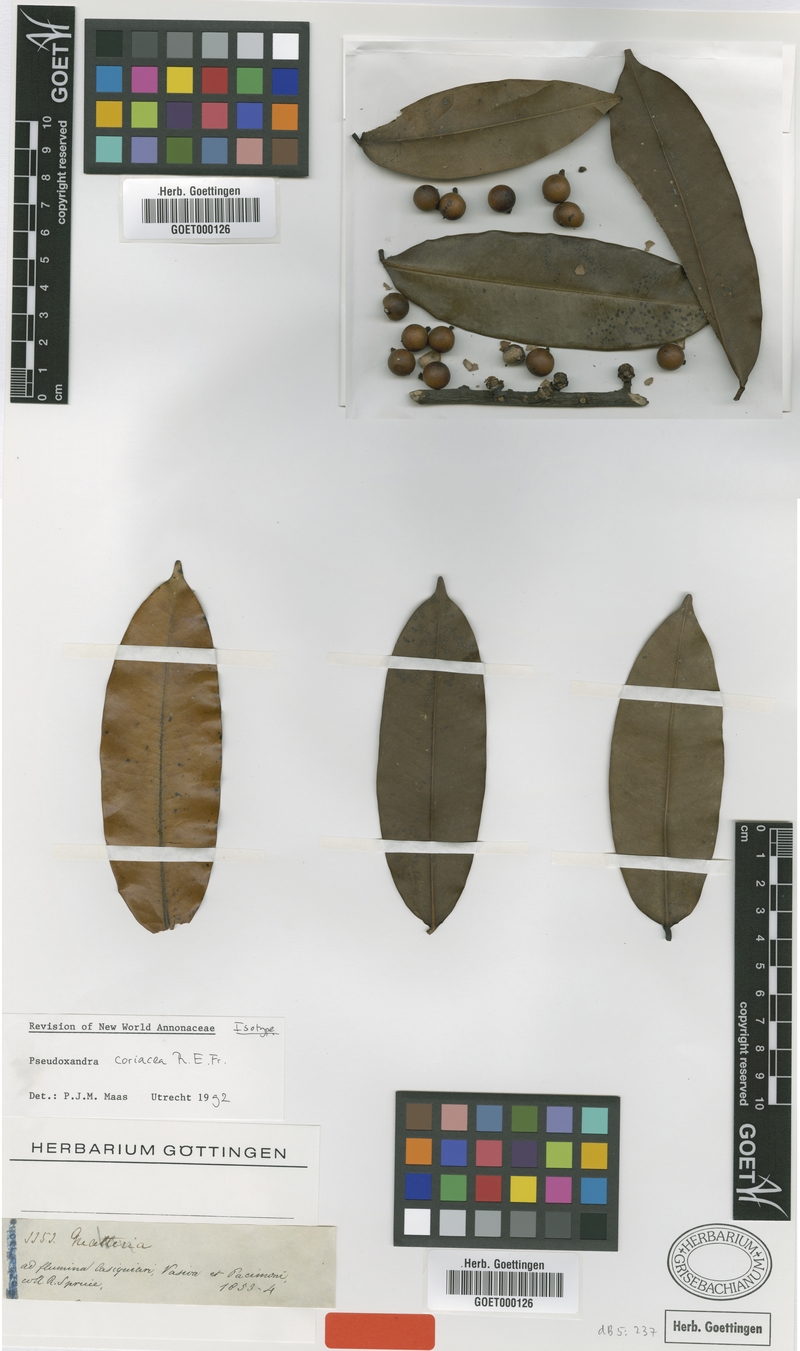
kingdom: Plantae
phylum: Tracheophyta
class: Magnoliopsida
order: Magnoliales
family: Annonaceae
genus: Pseudoxandra
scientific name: Pseudoxandra leiophylla
